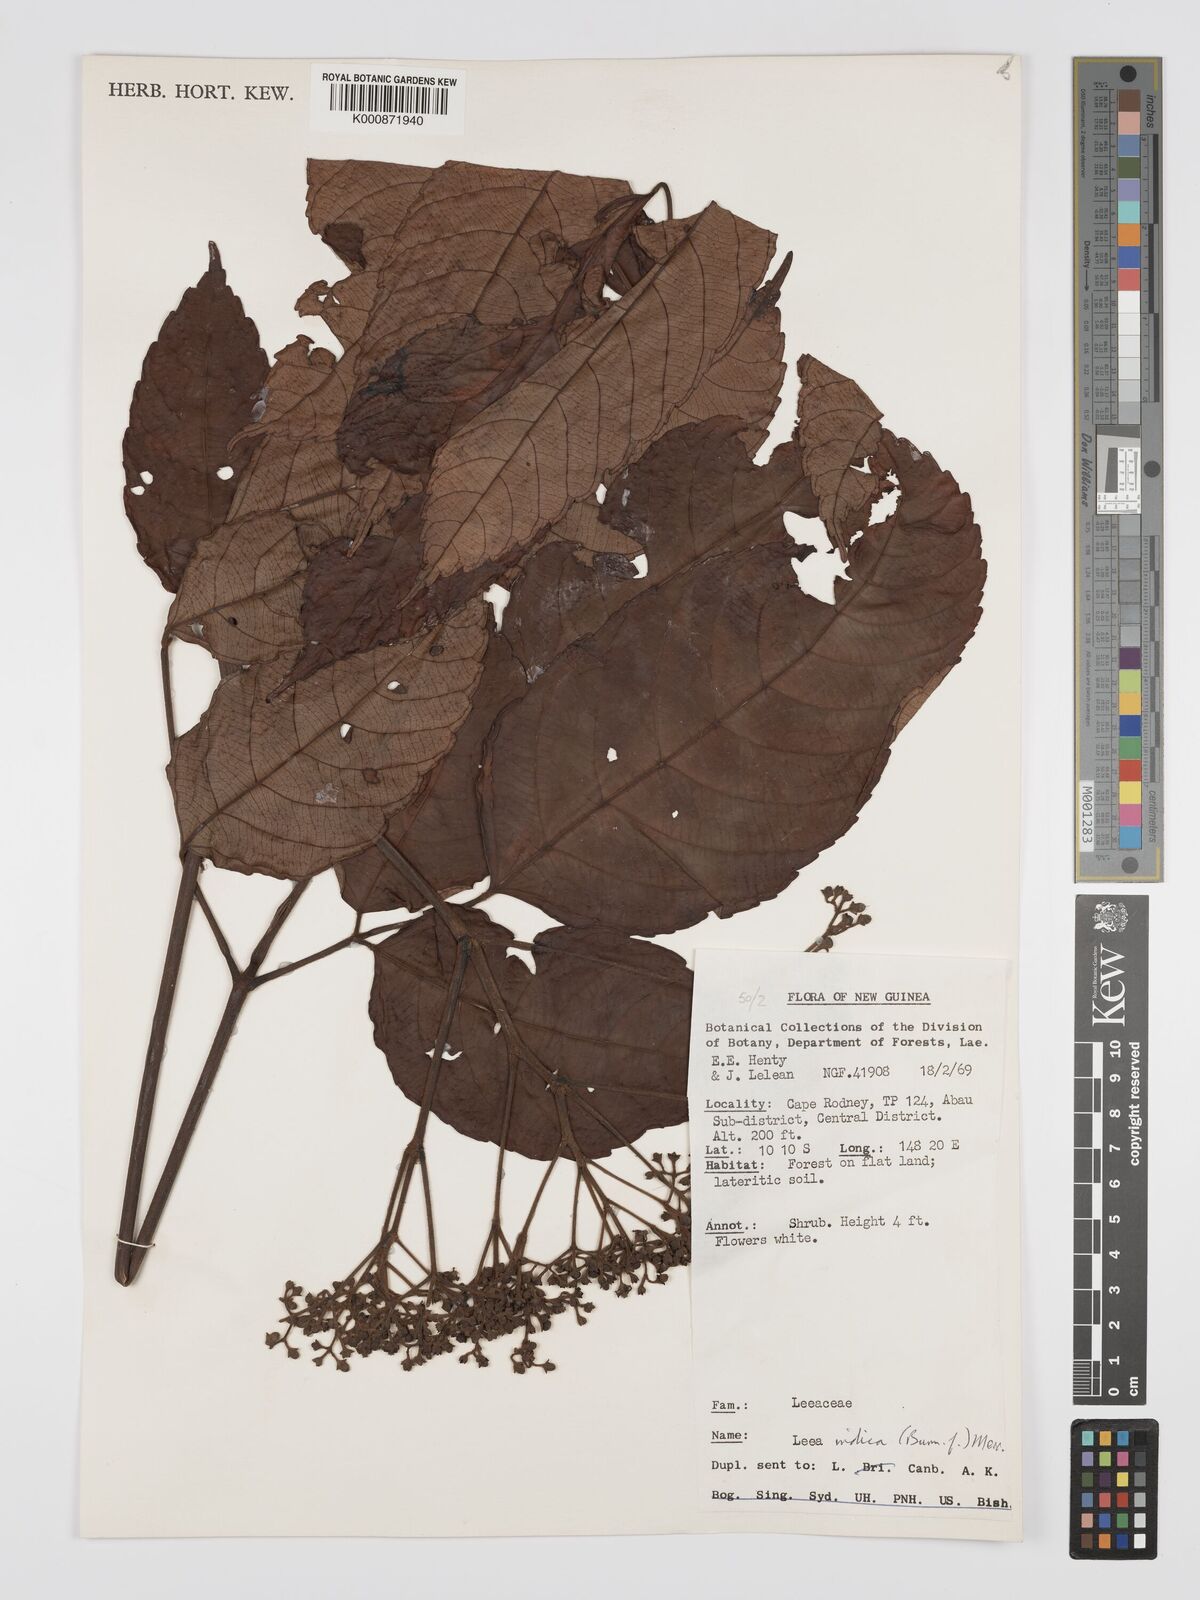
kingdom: Plantae
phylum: Tracheophyta
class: Magnoliopsida
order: Vitales
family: Vitaceae
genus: Leea
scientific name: Leea indica
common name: Bandicoot-berry
